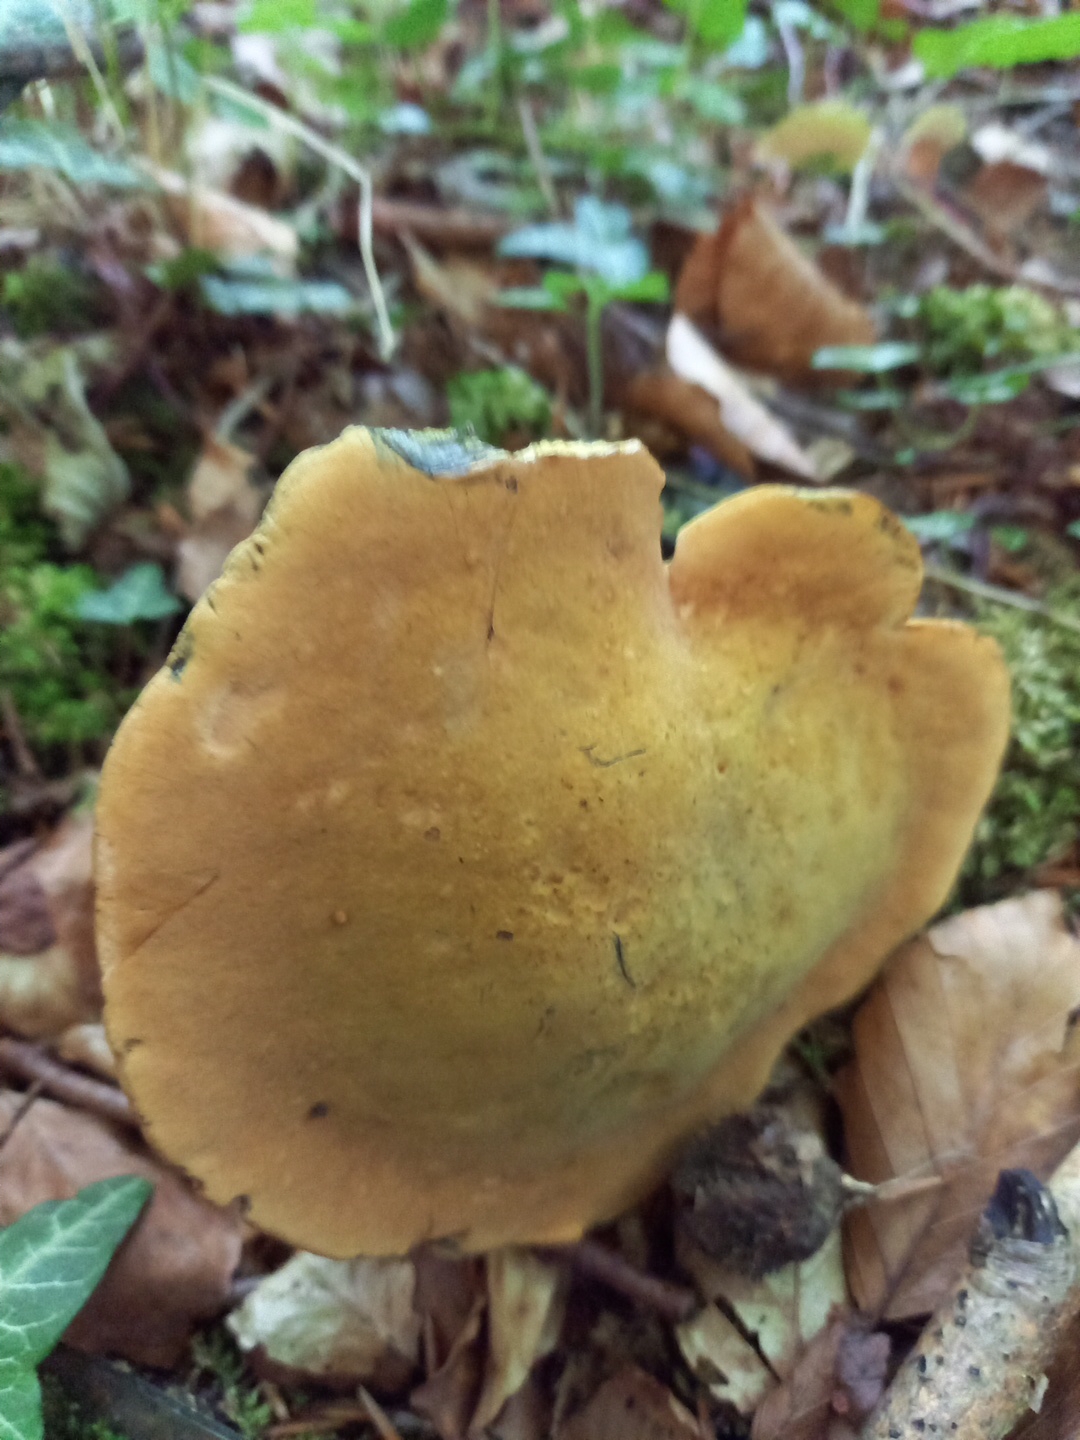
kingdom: Fungi
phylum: Basidiomycota
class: Agaricomycetes
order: Boletales
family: Boletaceae
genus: Suillellus
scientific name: Suillellus luridus
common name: netstokket indigorørhat
